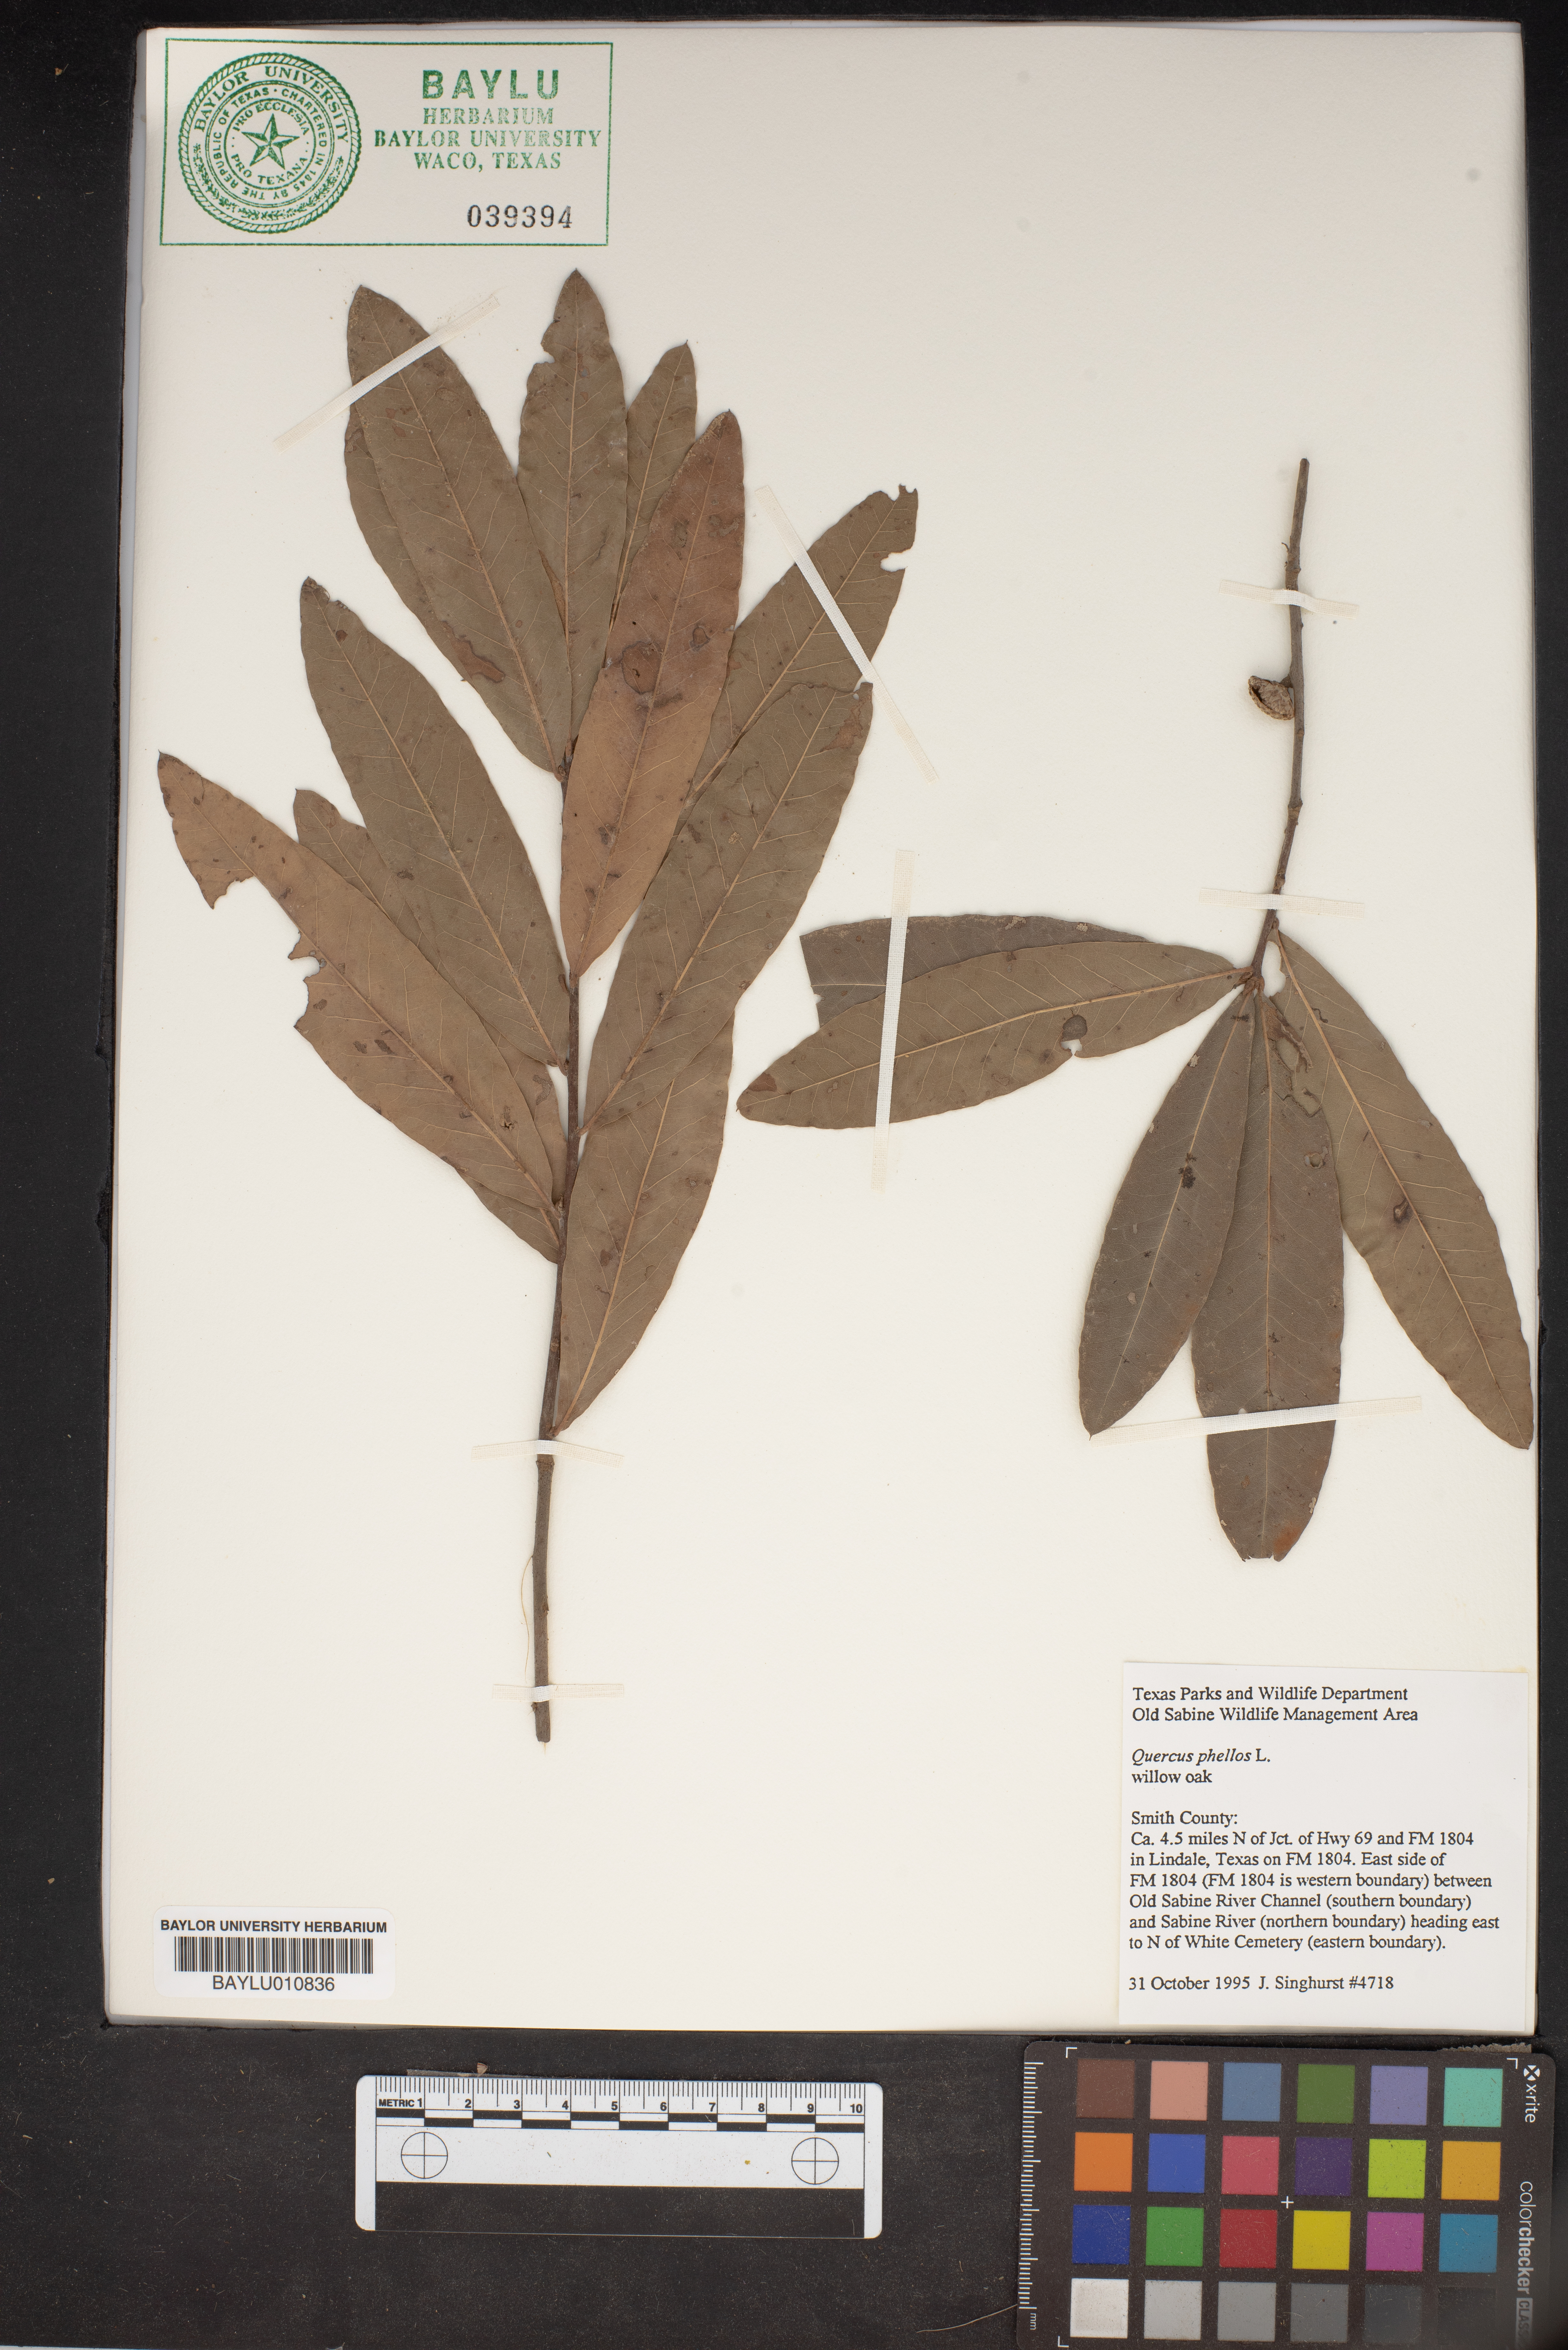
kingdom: Plantae
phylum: Tracheophyta
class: Magnoliopsida
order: Fagales
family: Fagaceae
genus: Quercus
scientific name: Quercus phellos
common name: Willow oak
